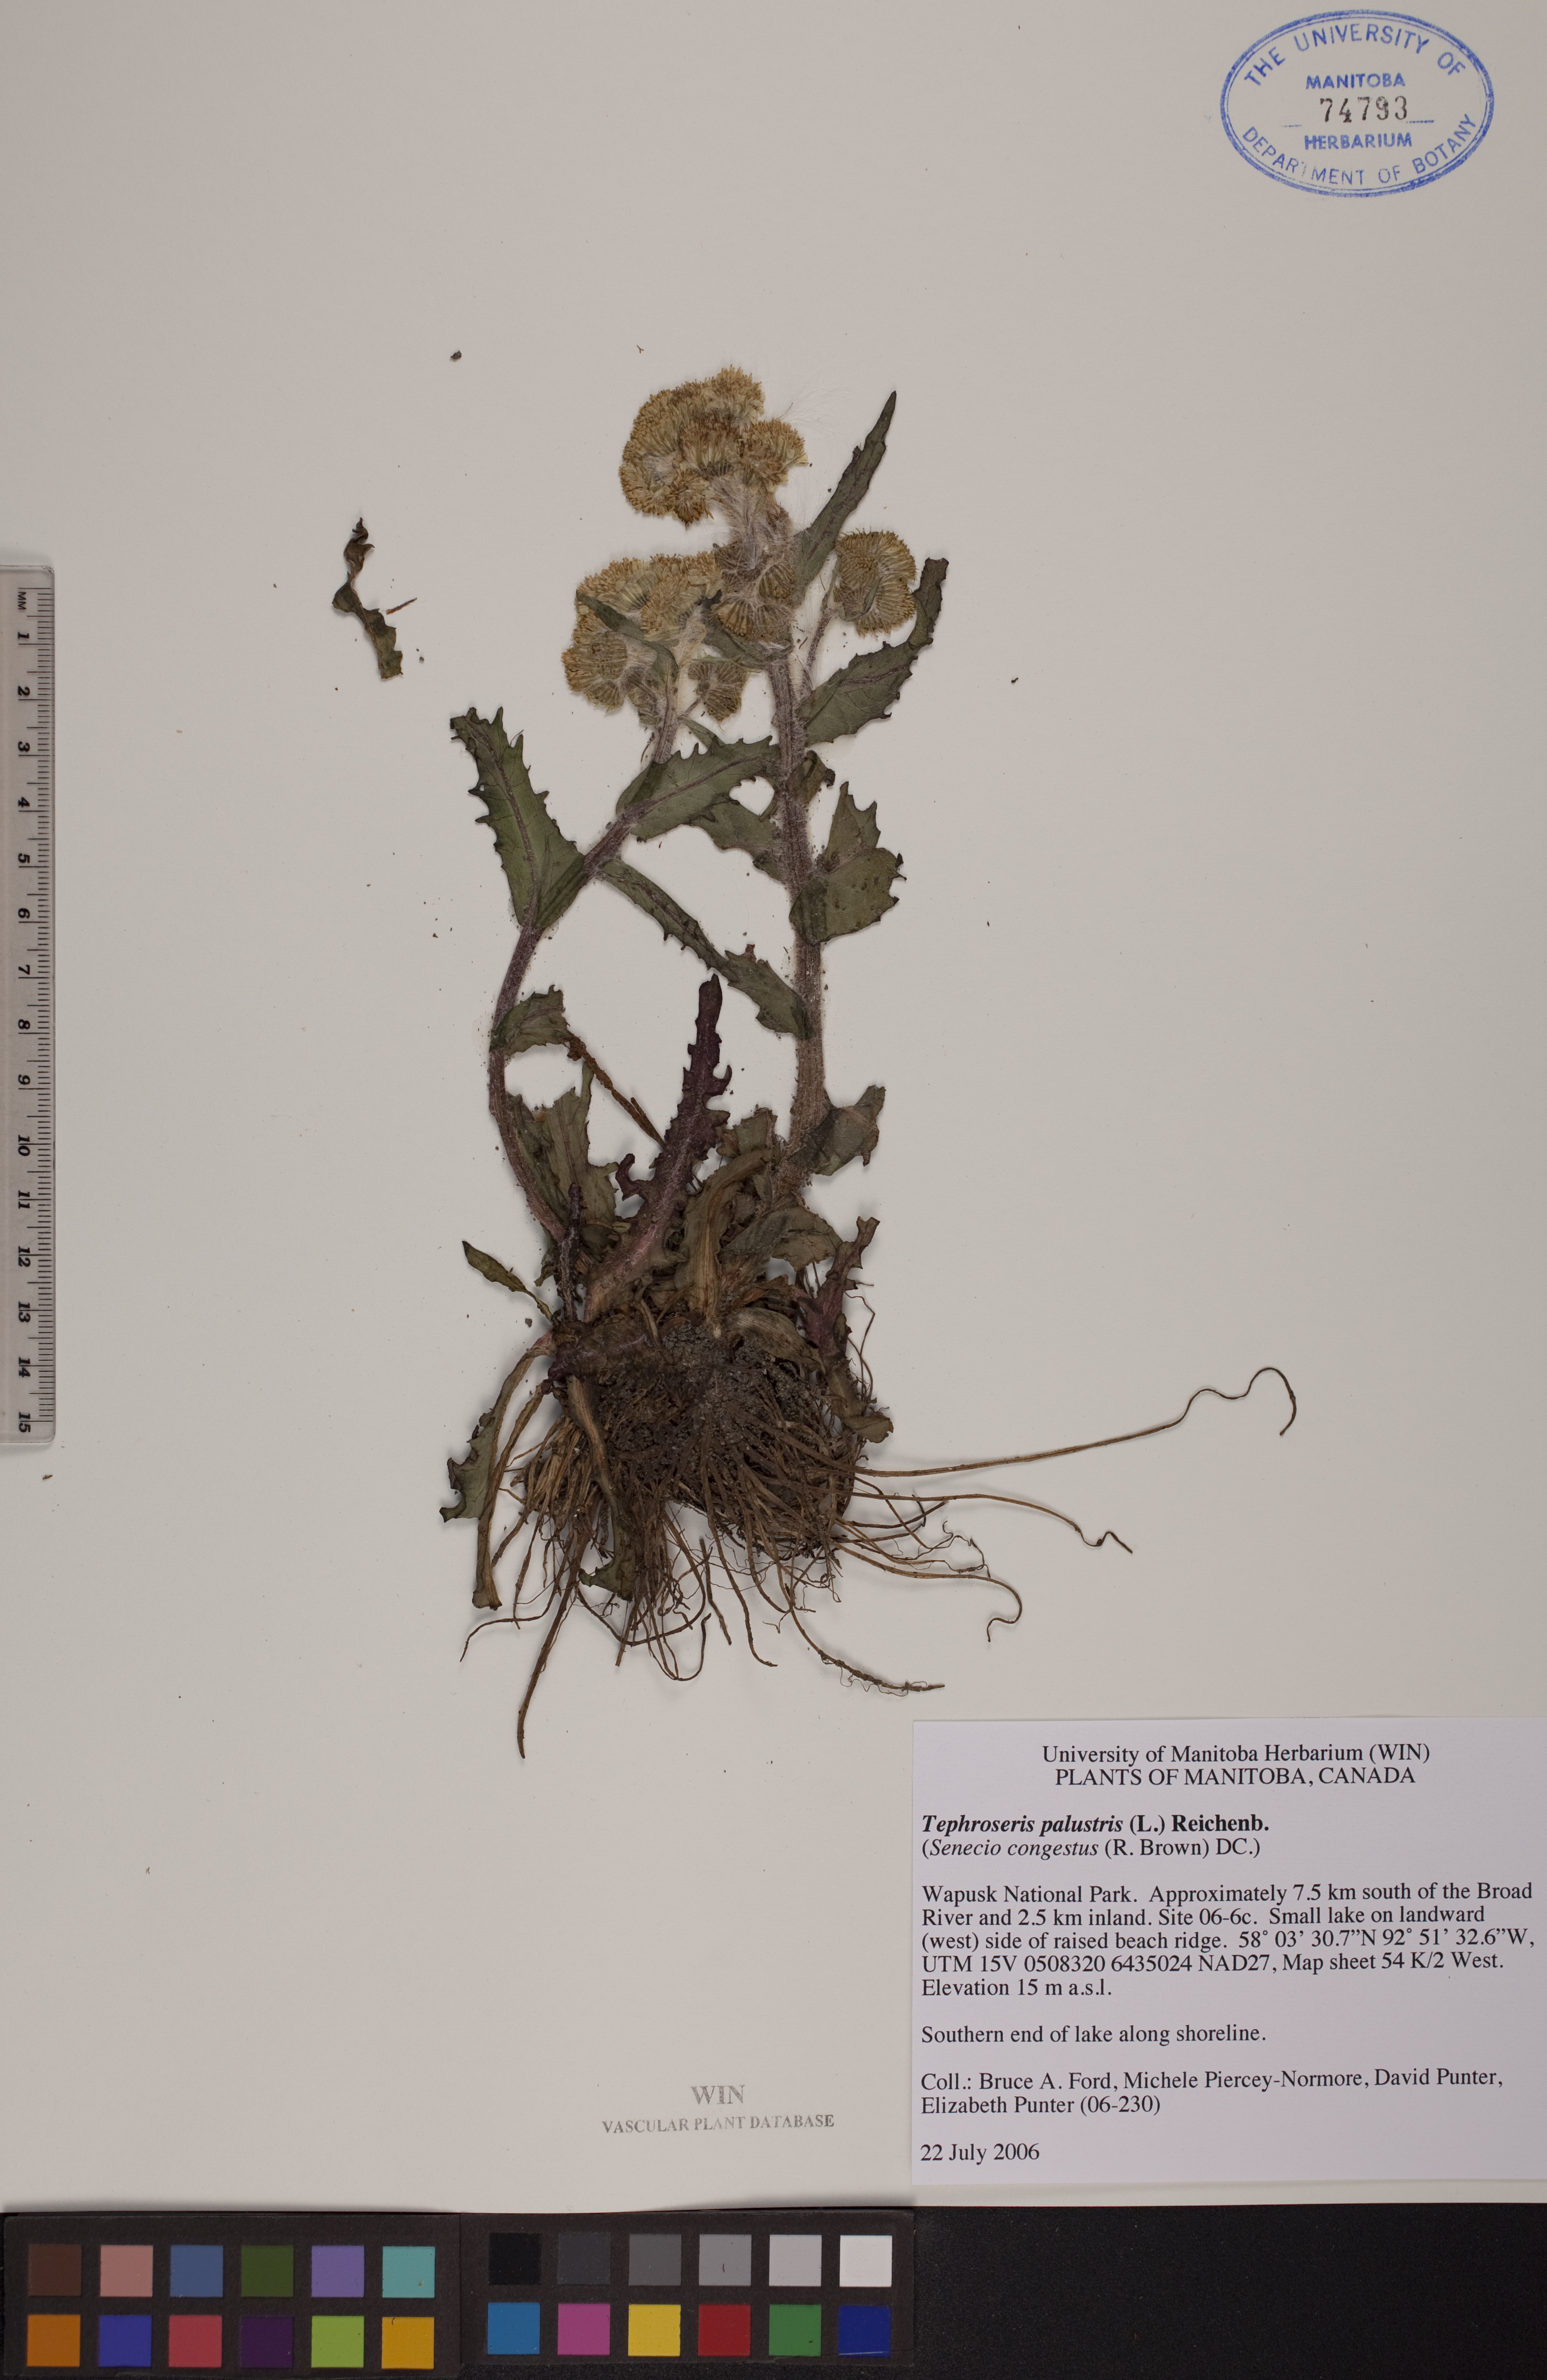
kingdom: Plantae
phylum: Tracheophyta
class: Magnoliopsida
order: Asterales
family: Asteraceae
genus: Tephroseris
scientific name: Tephroseris palustris
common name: Marsh fleawort
